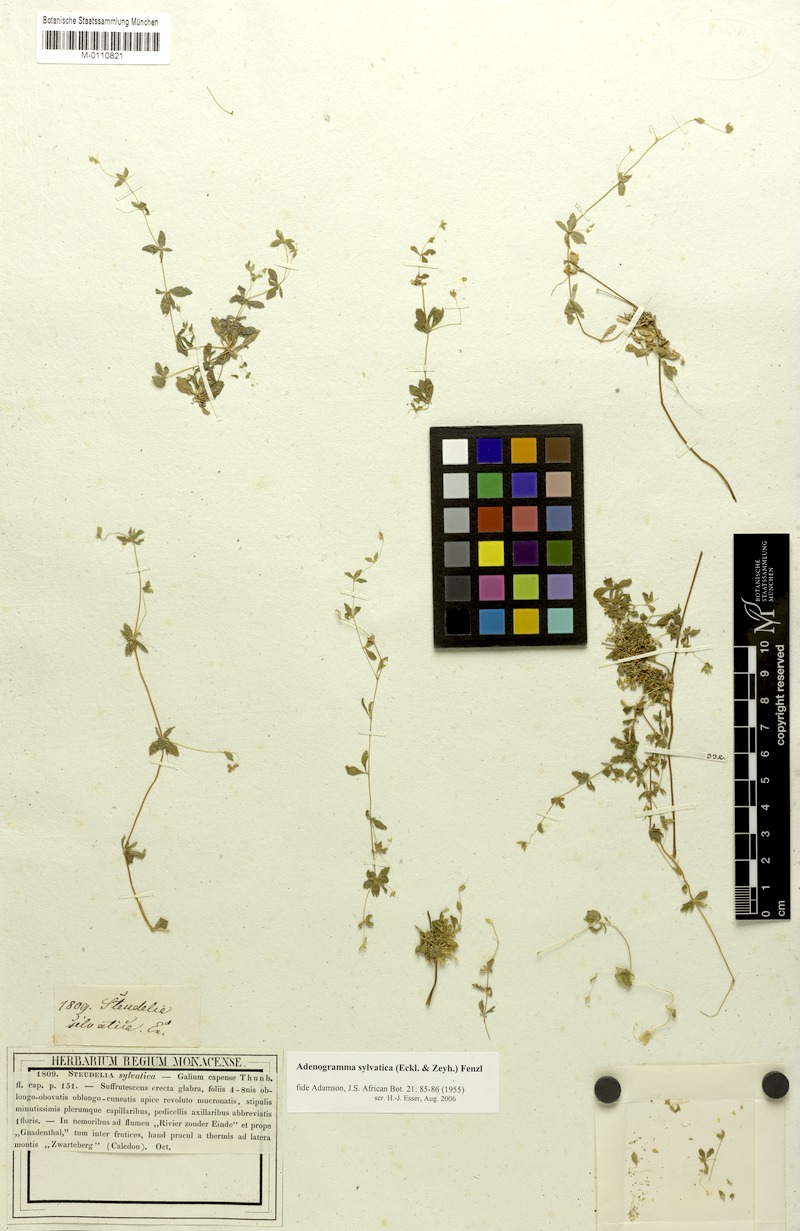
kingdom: Plantae
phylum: Tracheophyta
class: Magnoliopsida
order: Caryophyllales
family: Molluginaceae
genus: Adenogramma
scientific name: Adenogramma sylvatica
